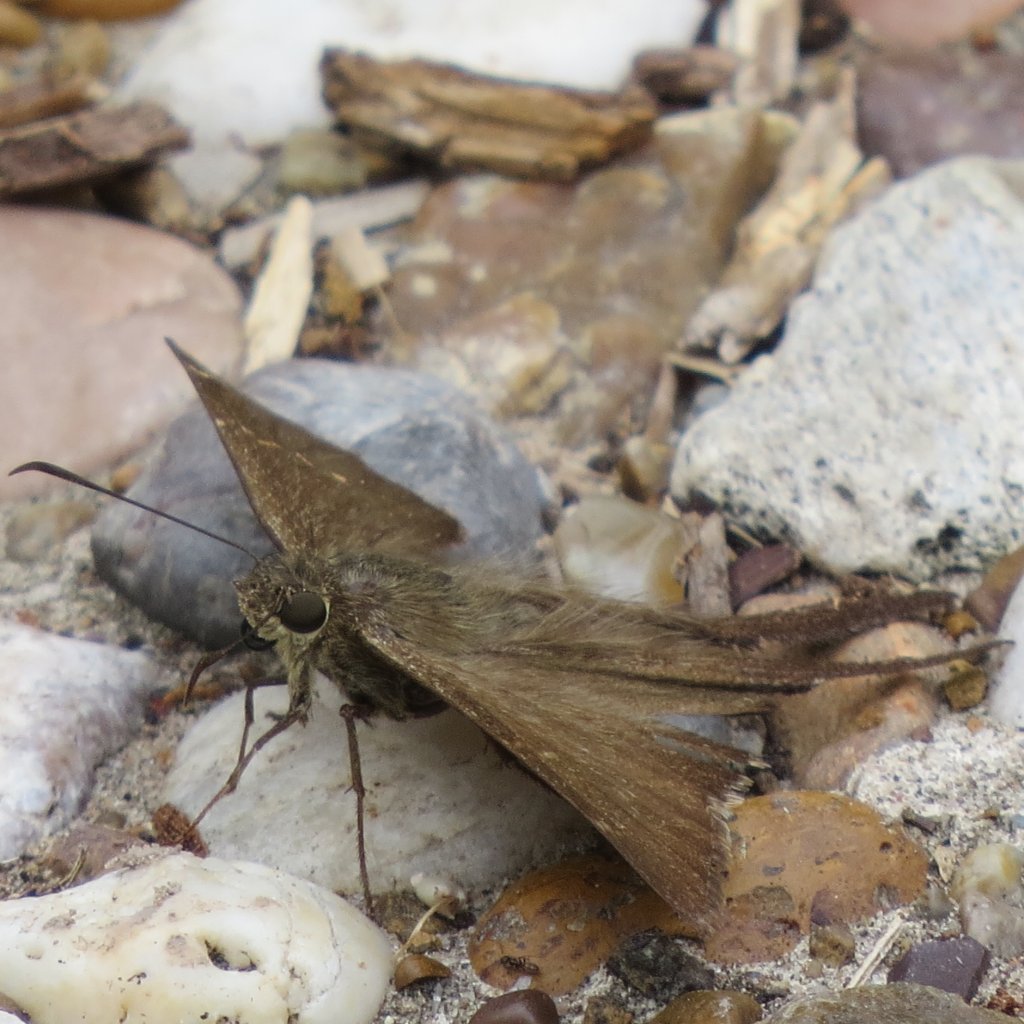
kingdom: Animalia
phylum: Arthropoda
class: Insecta
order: Lepidoptera
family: Hesperiidae
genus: Urbanus
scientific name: Urbanus procne
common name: Brown Longtail
